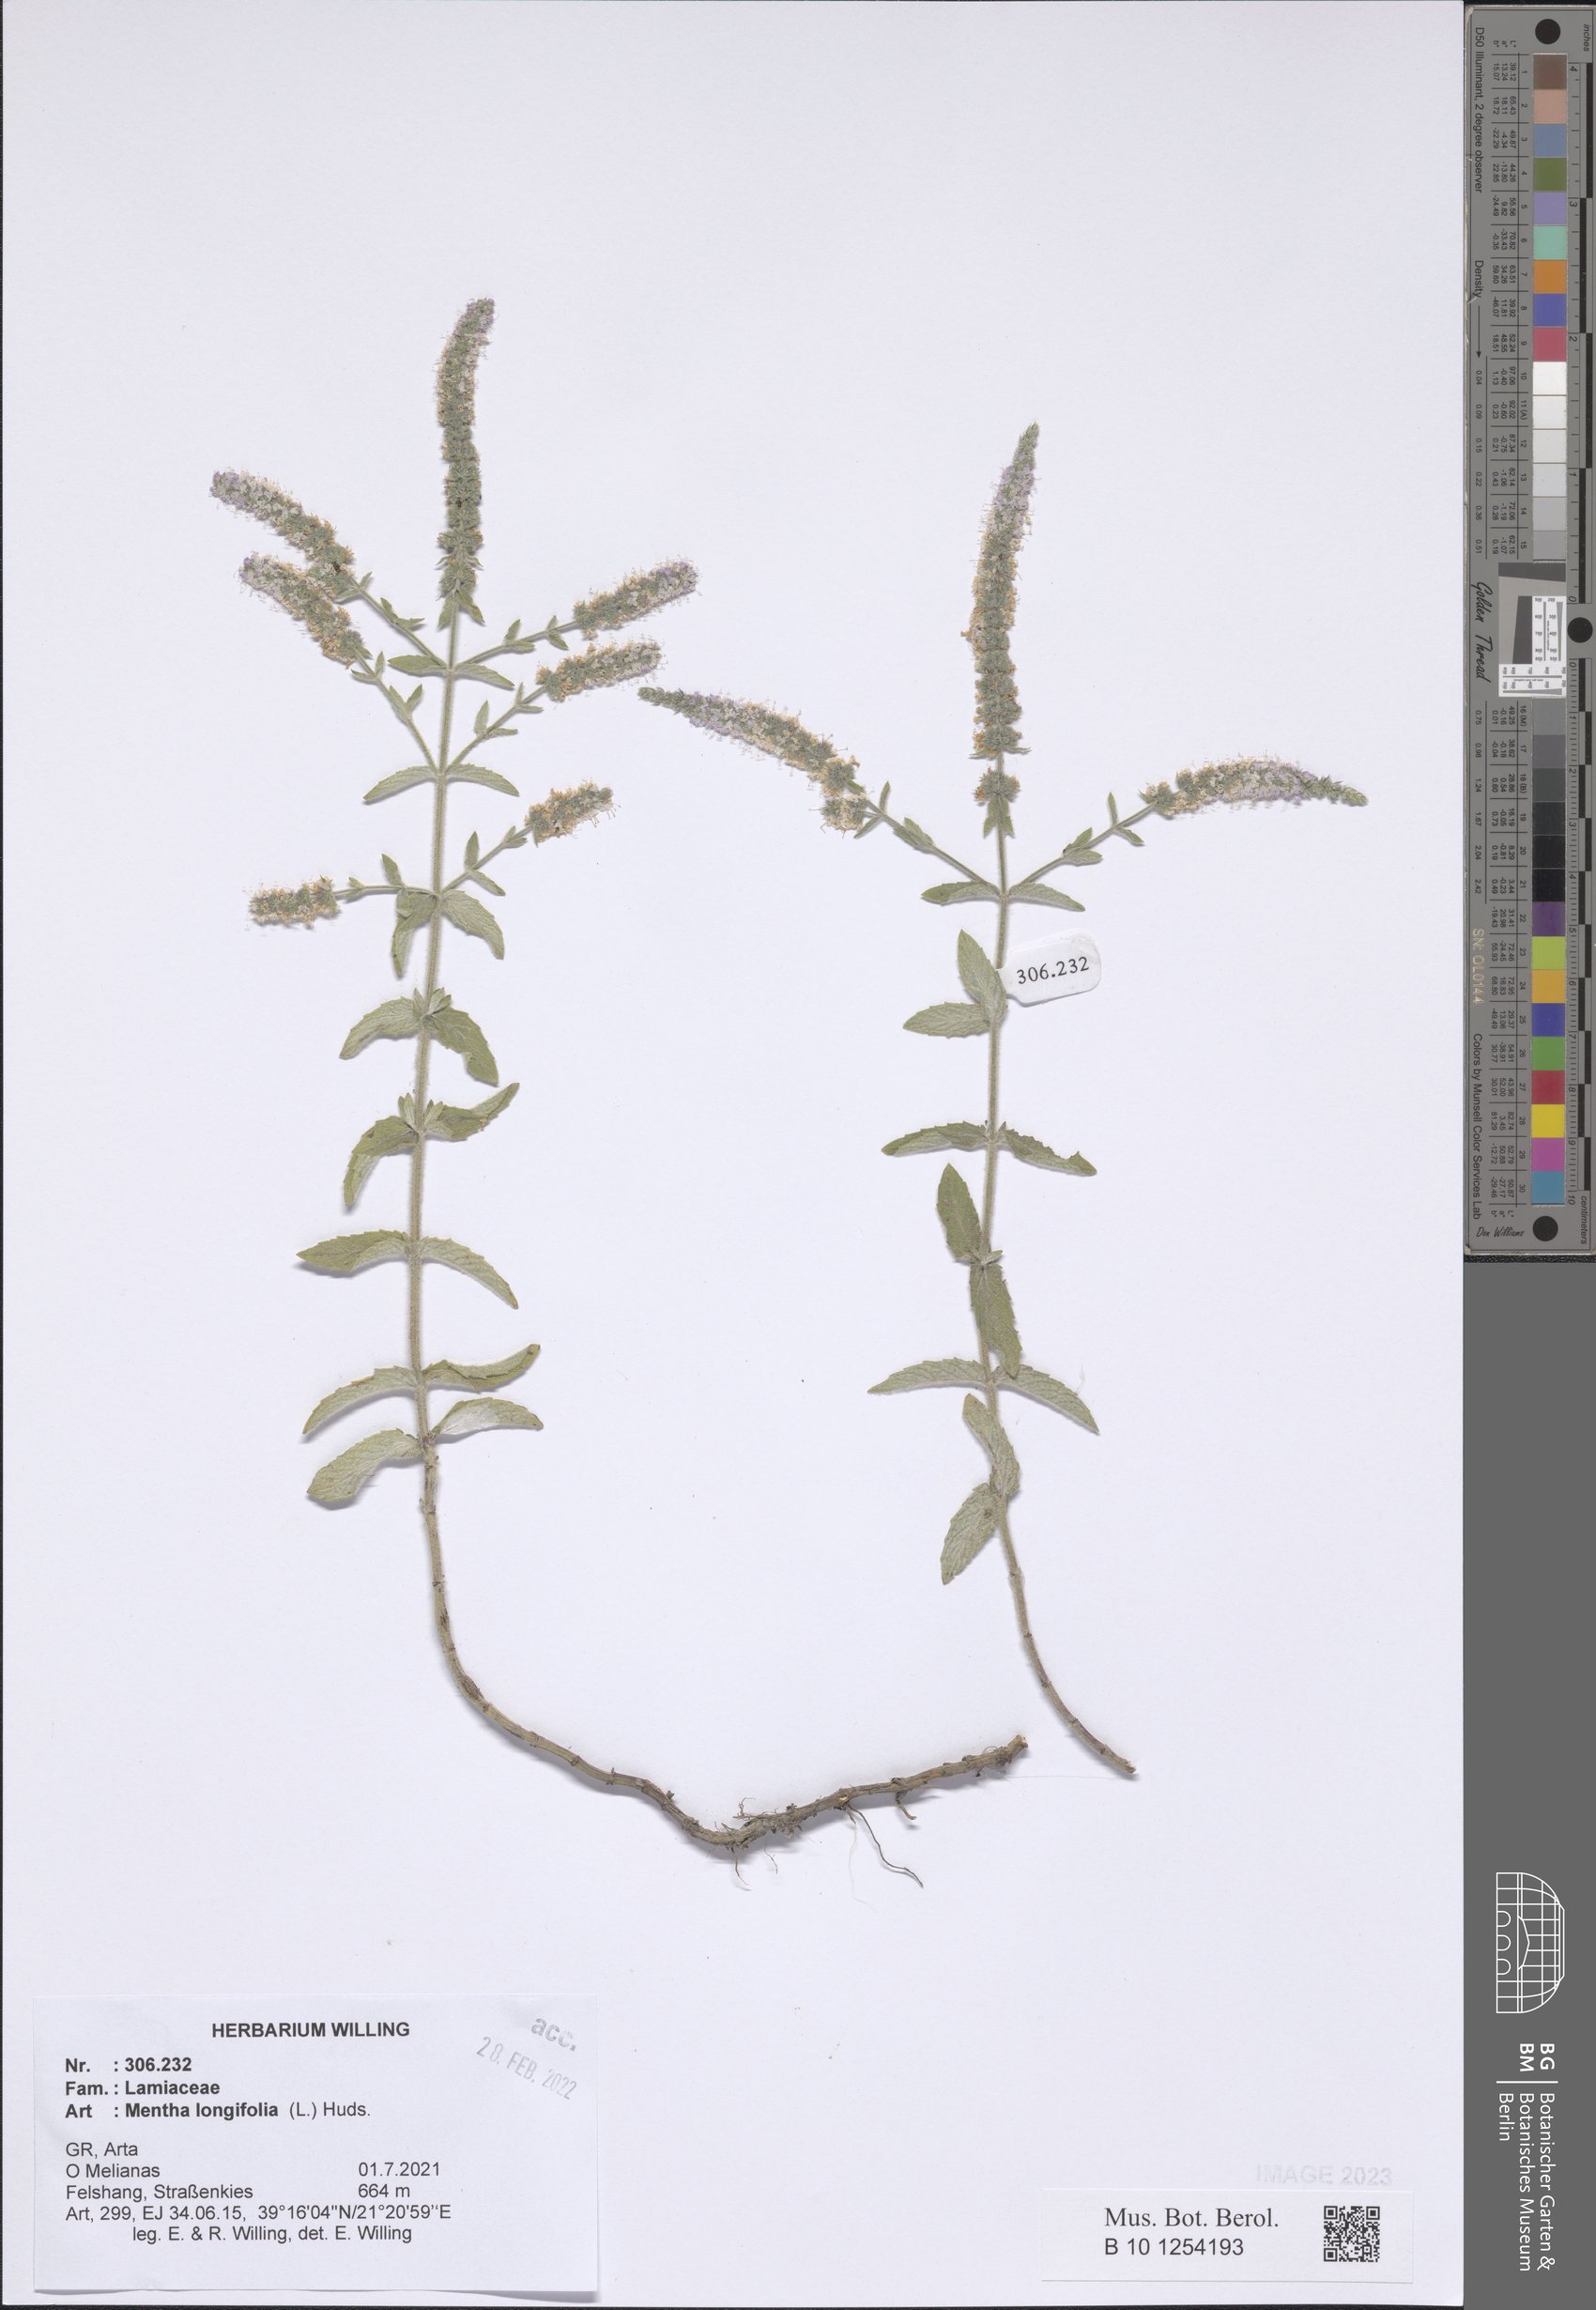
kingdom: Plantae
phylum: Tracheophyta
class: Magnoliopsida
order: Lamiales
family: Lamiaceae
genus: Mentha
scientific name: Mentha longifolia
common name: Horse mint
